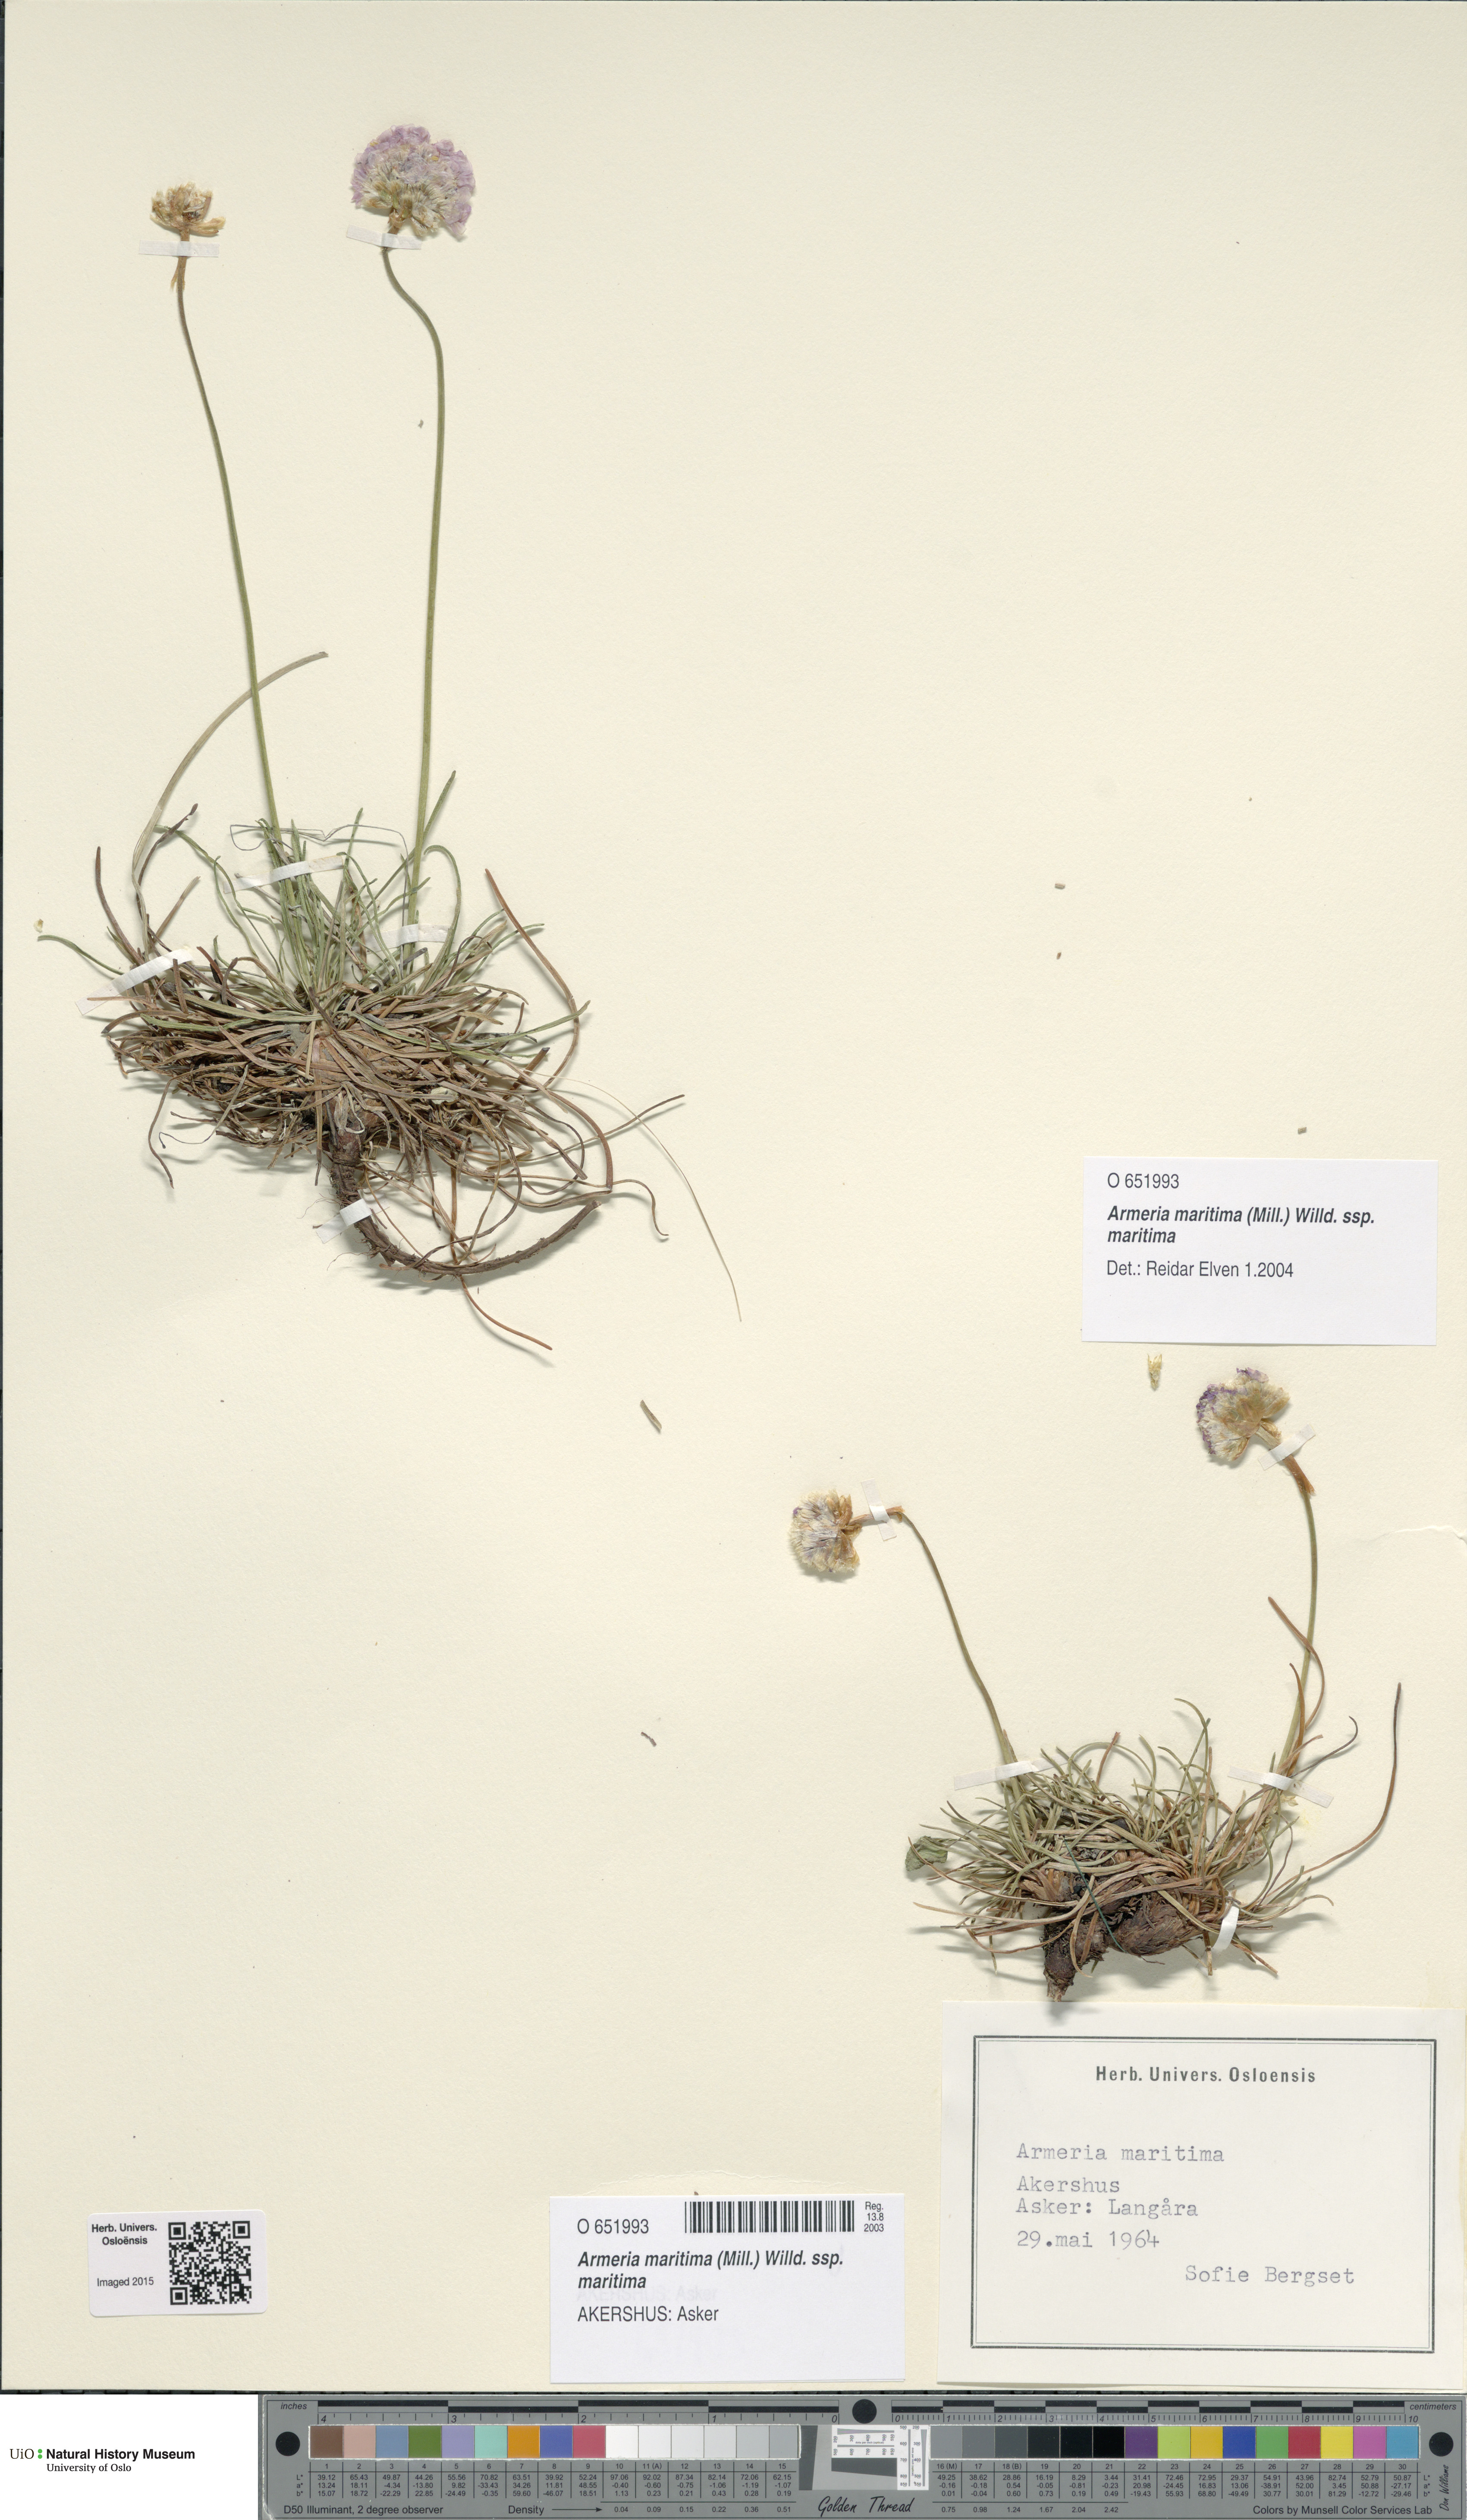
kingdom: Plantae
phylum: Tracheophyta
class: Magnoliopsida
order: Caryophyllales
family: Plumbaginaceae
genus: Armeria
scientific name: Armeria maritima
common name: Thrift
